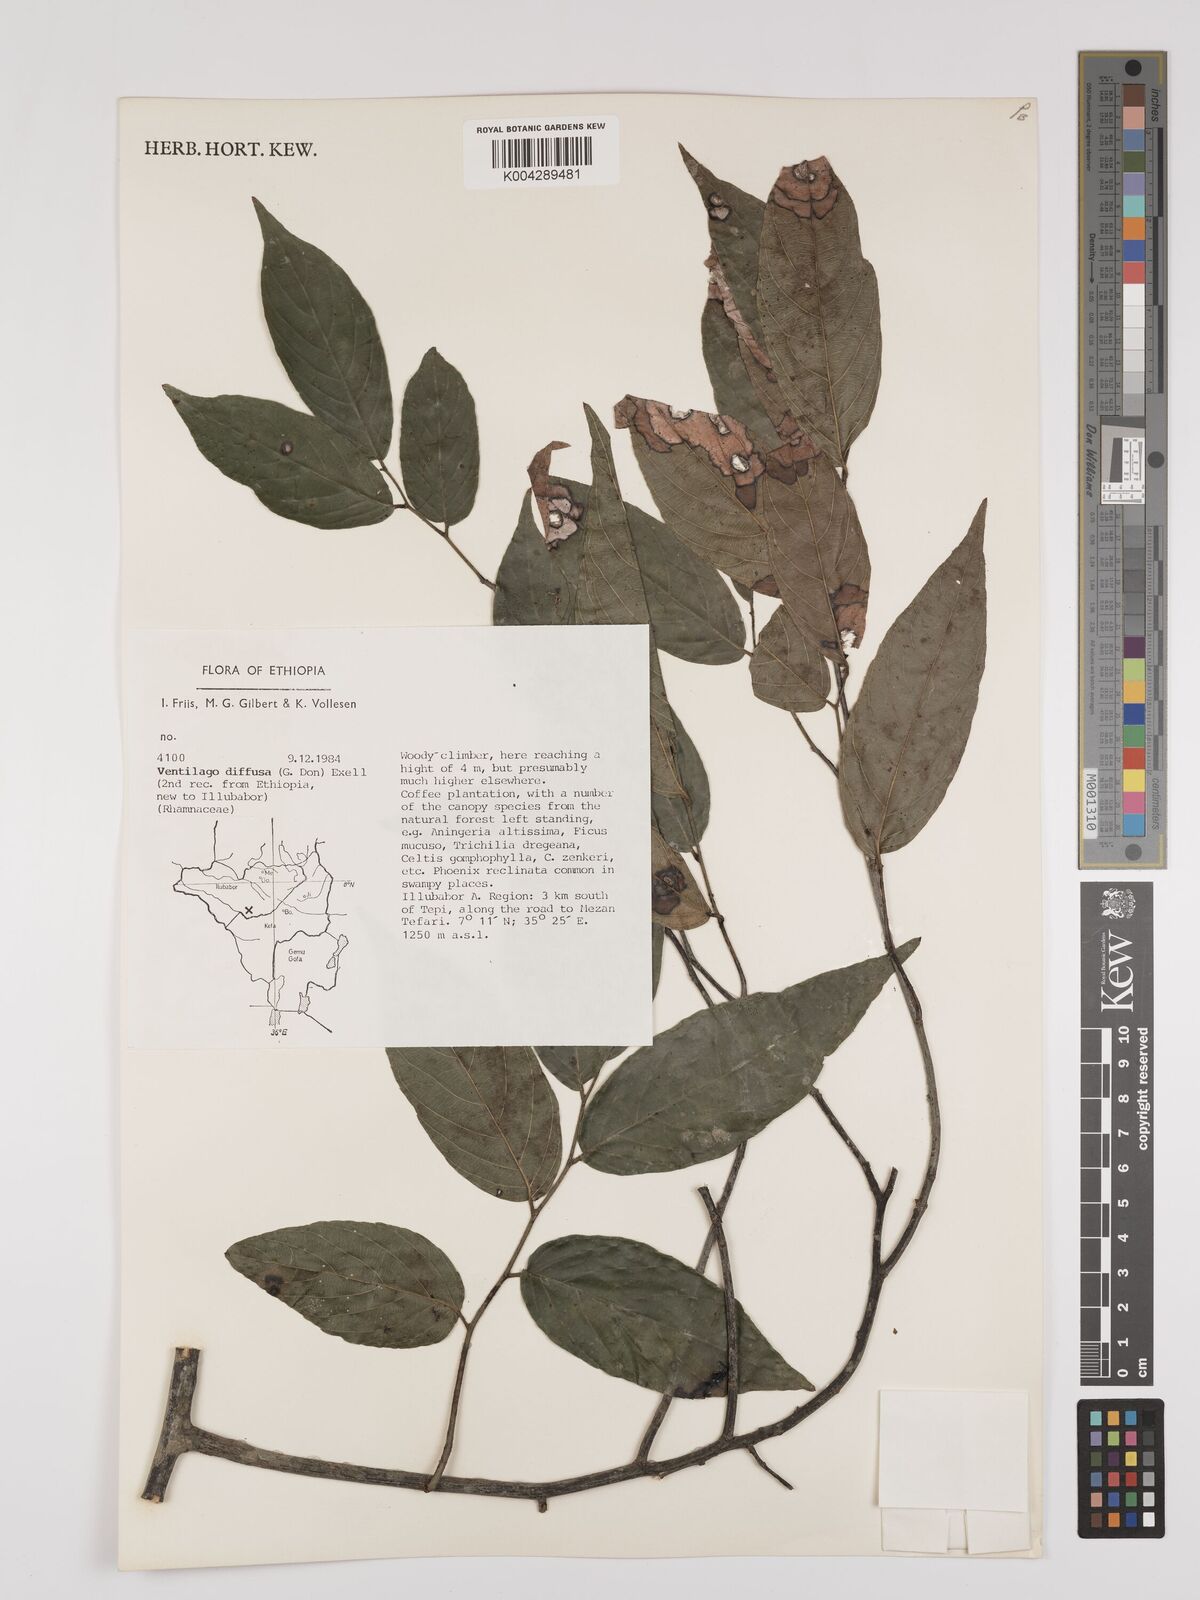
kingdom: Plantae
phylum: Tracheophyta
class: Magnoliopsida
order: Rosales
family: Rhamnaceae
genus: Ventilago
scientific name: Ventilago diffusa
